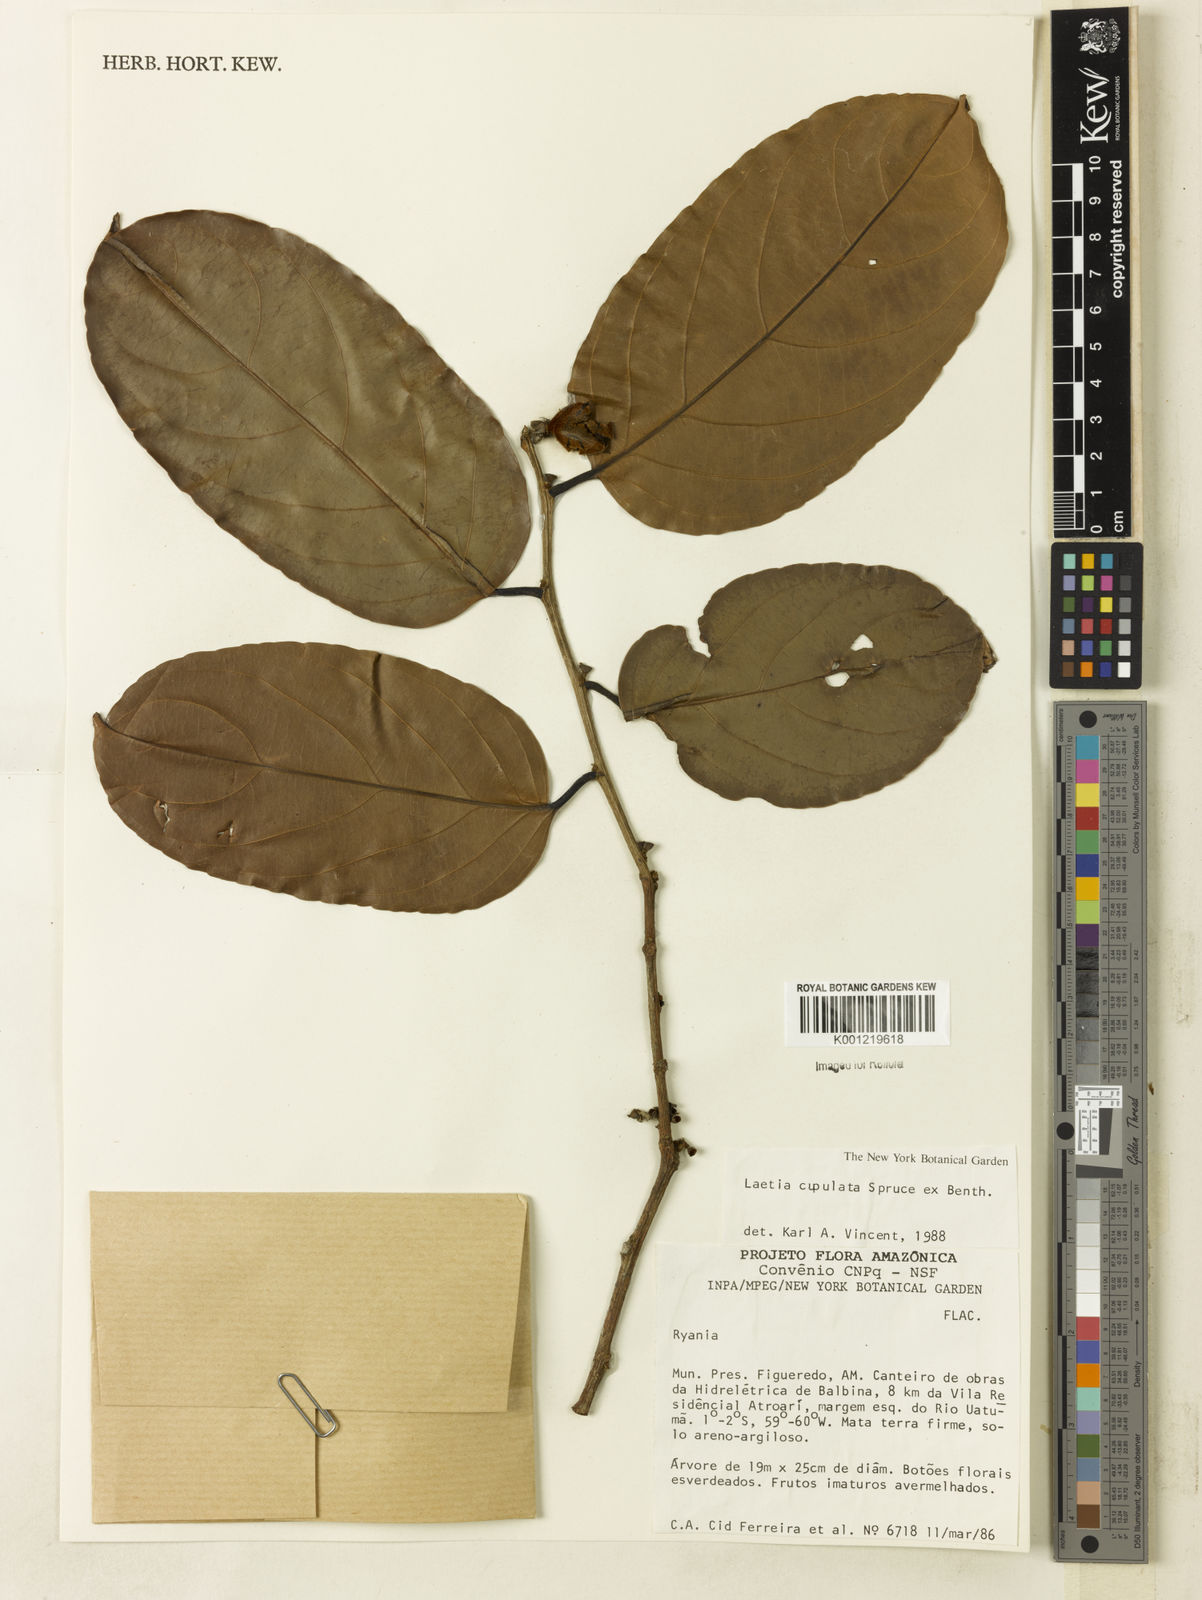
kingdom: Plantae
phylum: Tracheophyta
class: Magnoliopsida
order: Malpighiales
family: Salicaceae
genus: Irenodendron
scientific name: Irenodendron cupulatum
